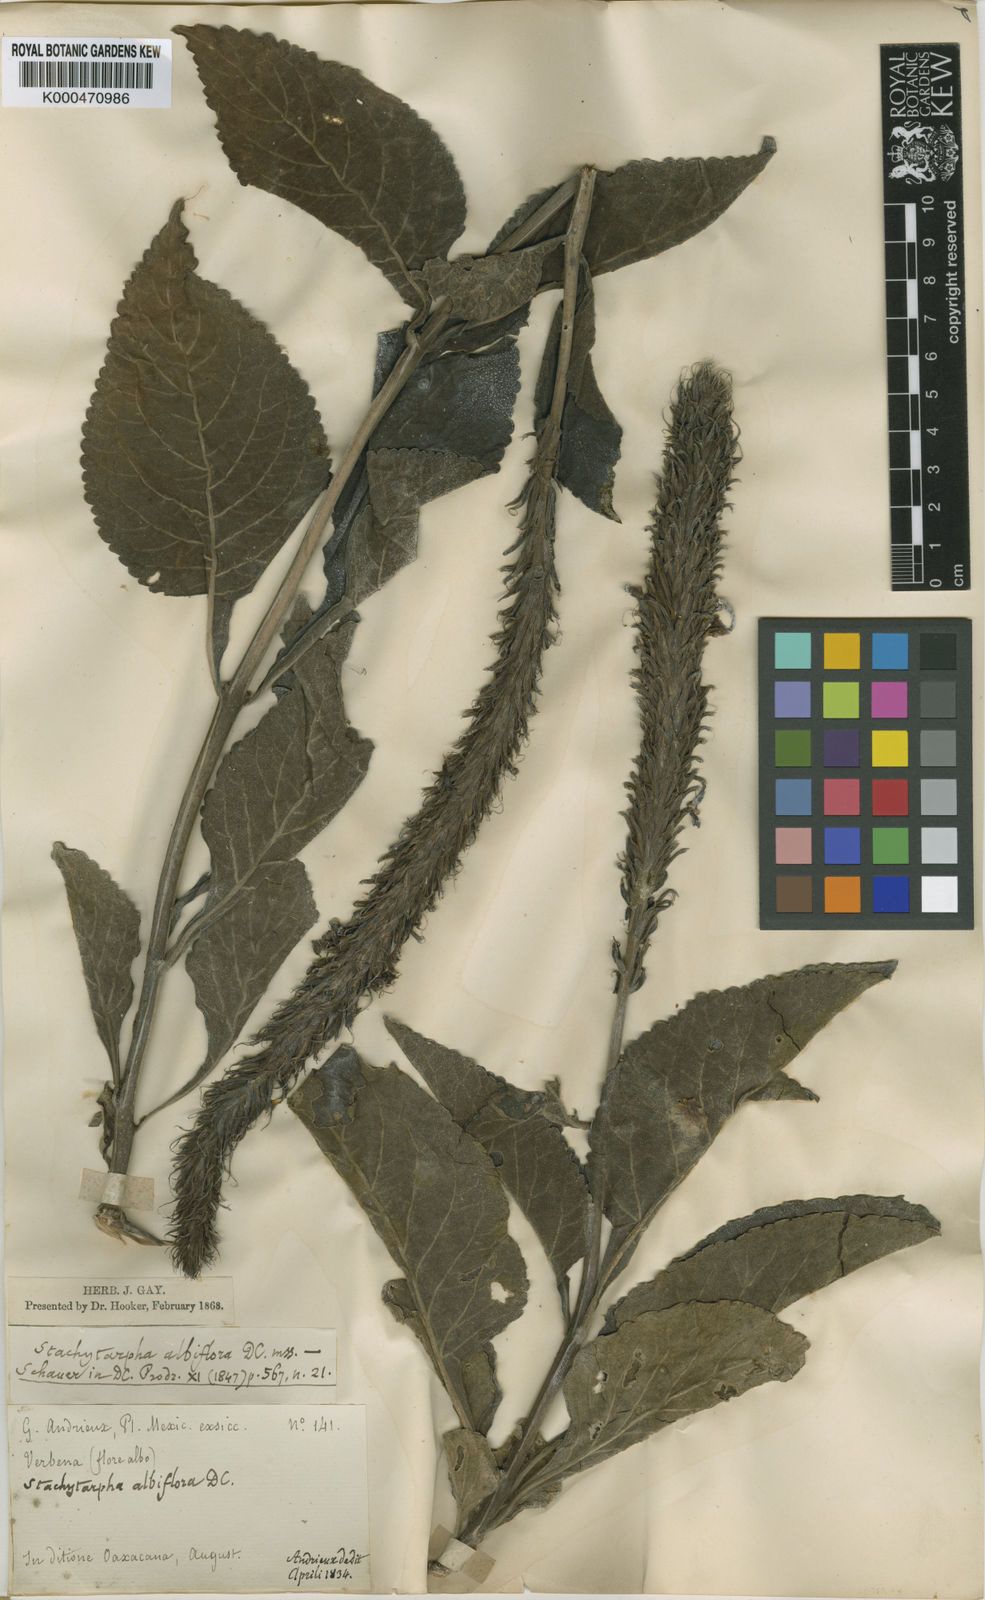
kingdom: Plantae
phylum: Tracheophyta
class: Magnoliopsida
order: Lamiales
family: Verbenaceae
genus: Stachytarpheta
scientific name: Stachytarpheta albiflora
